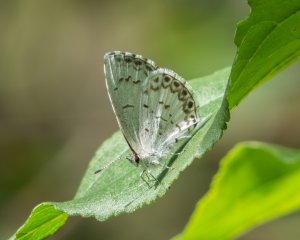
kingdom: Animalia
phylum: Arthropoda
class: Insecta
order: Lepidoptera
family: Lycaenidae
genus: Cyaniris
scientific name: Cyaniris neglecta
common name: Summer Azure
